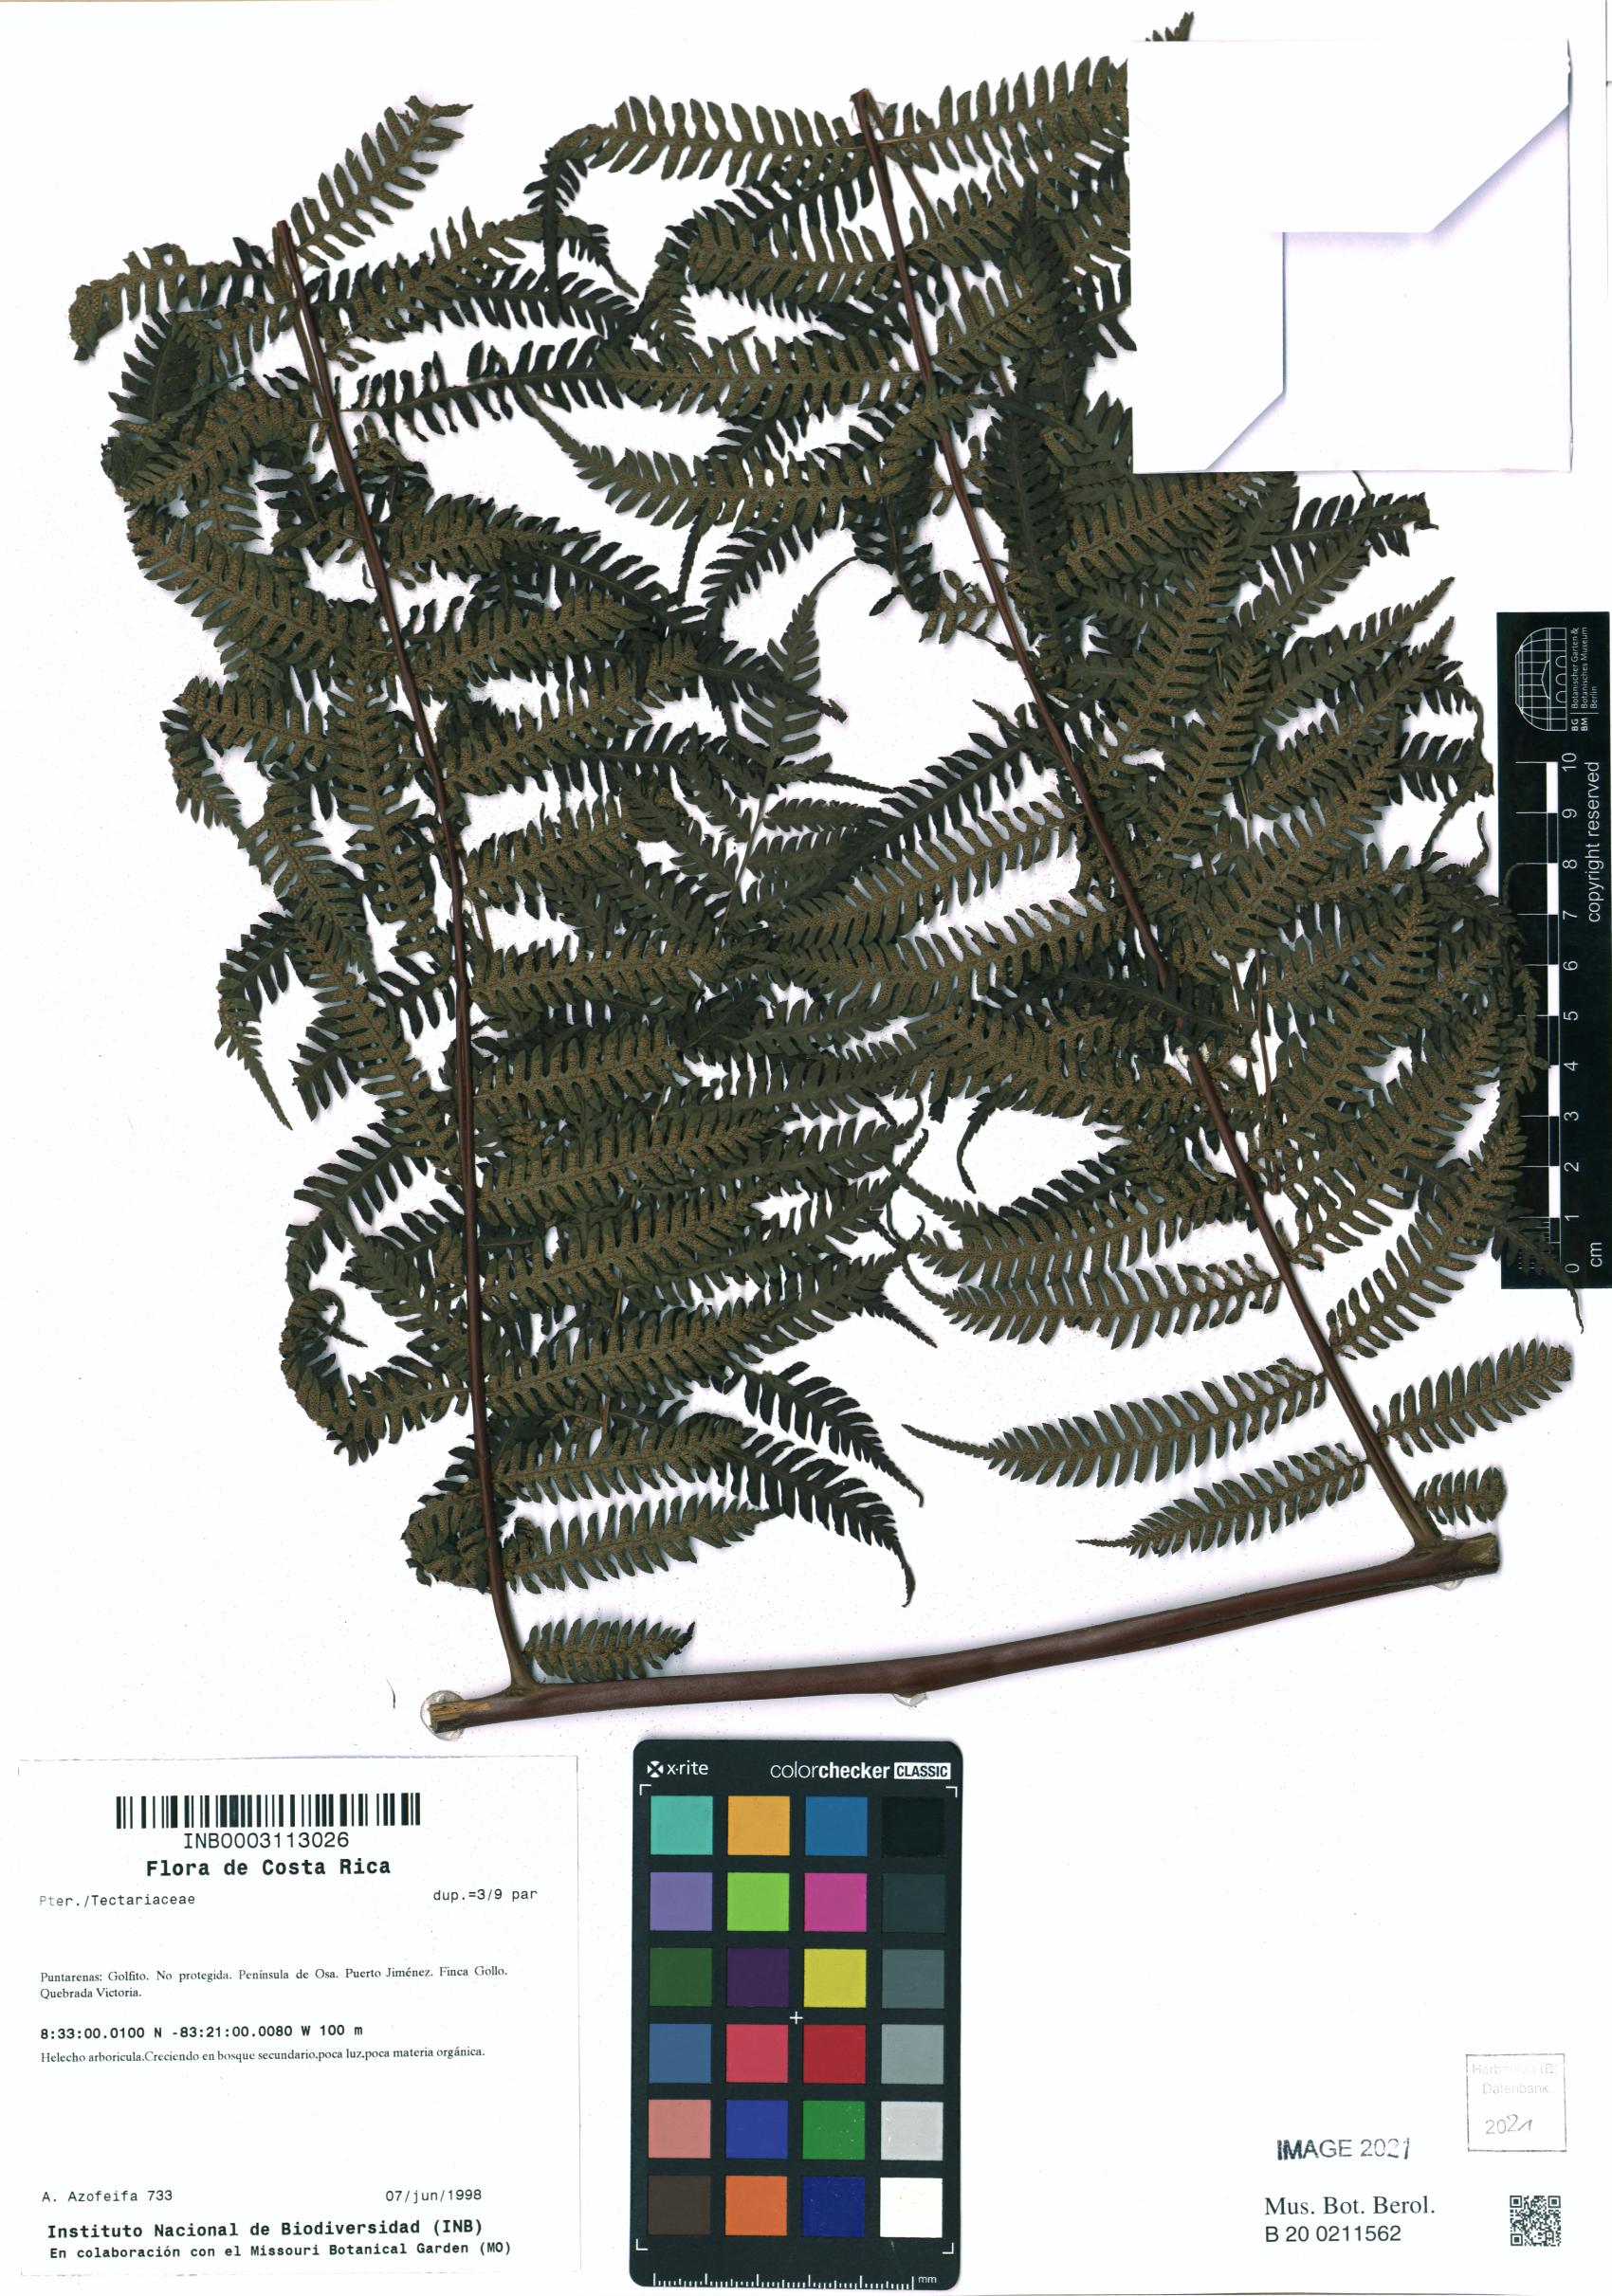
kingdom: Plantae
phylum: Tracheophyta
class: Polypodiopsida
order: Polypodiales
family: Tectariaceae
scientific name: Tectariaceae
